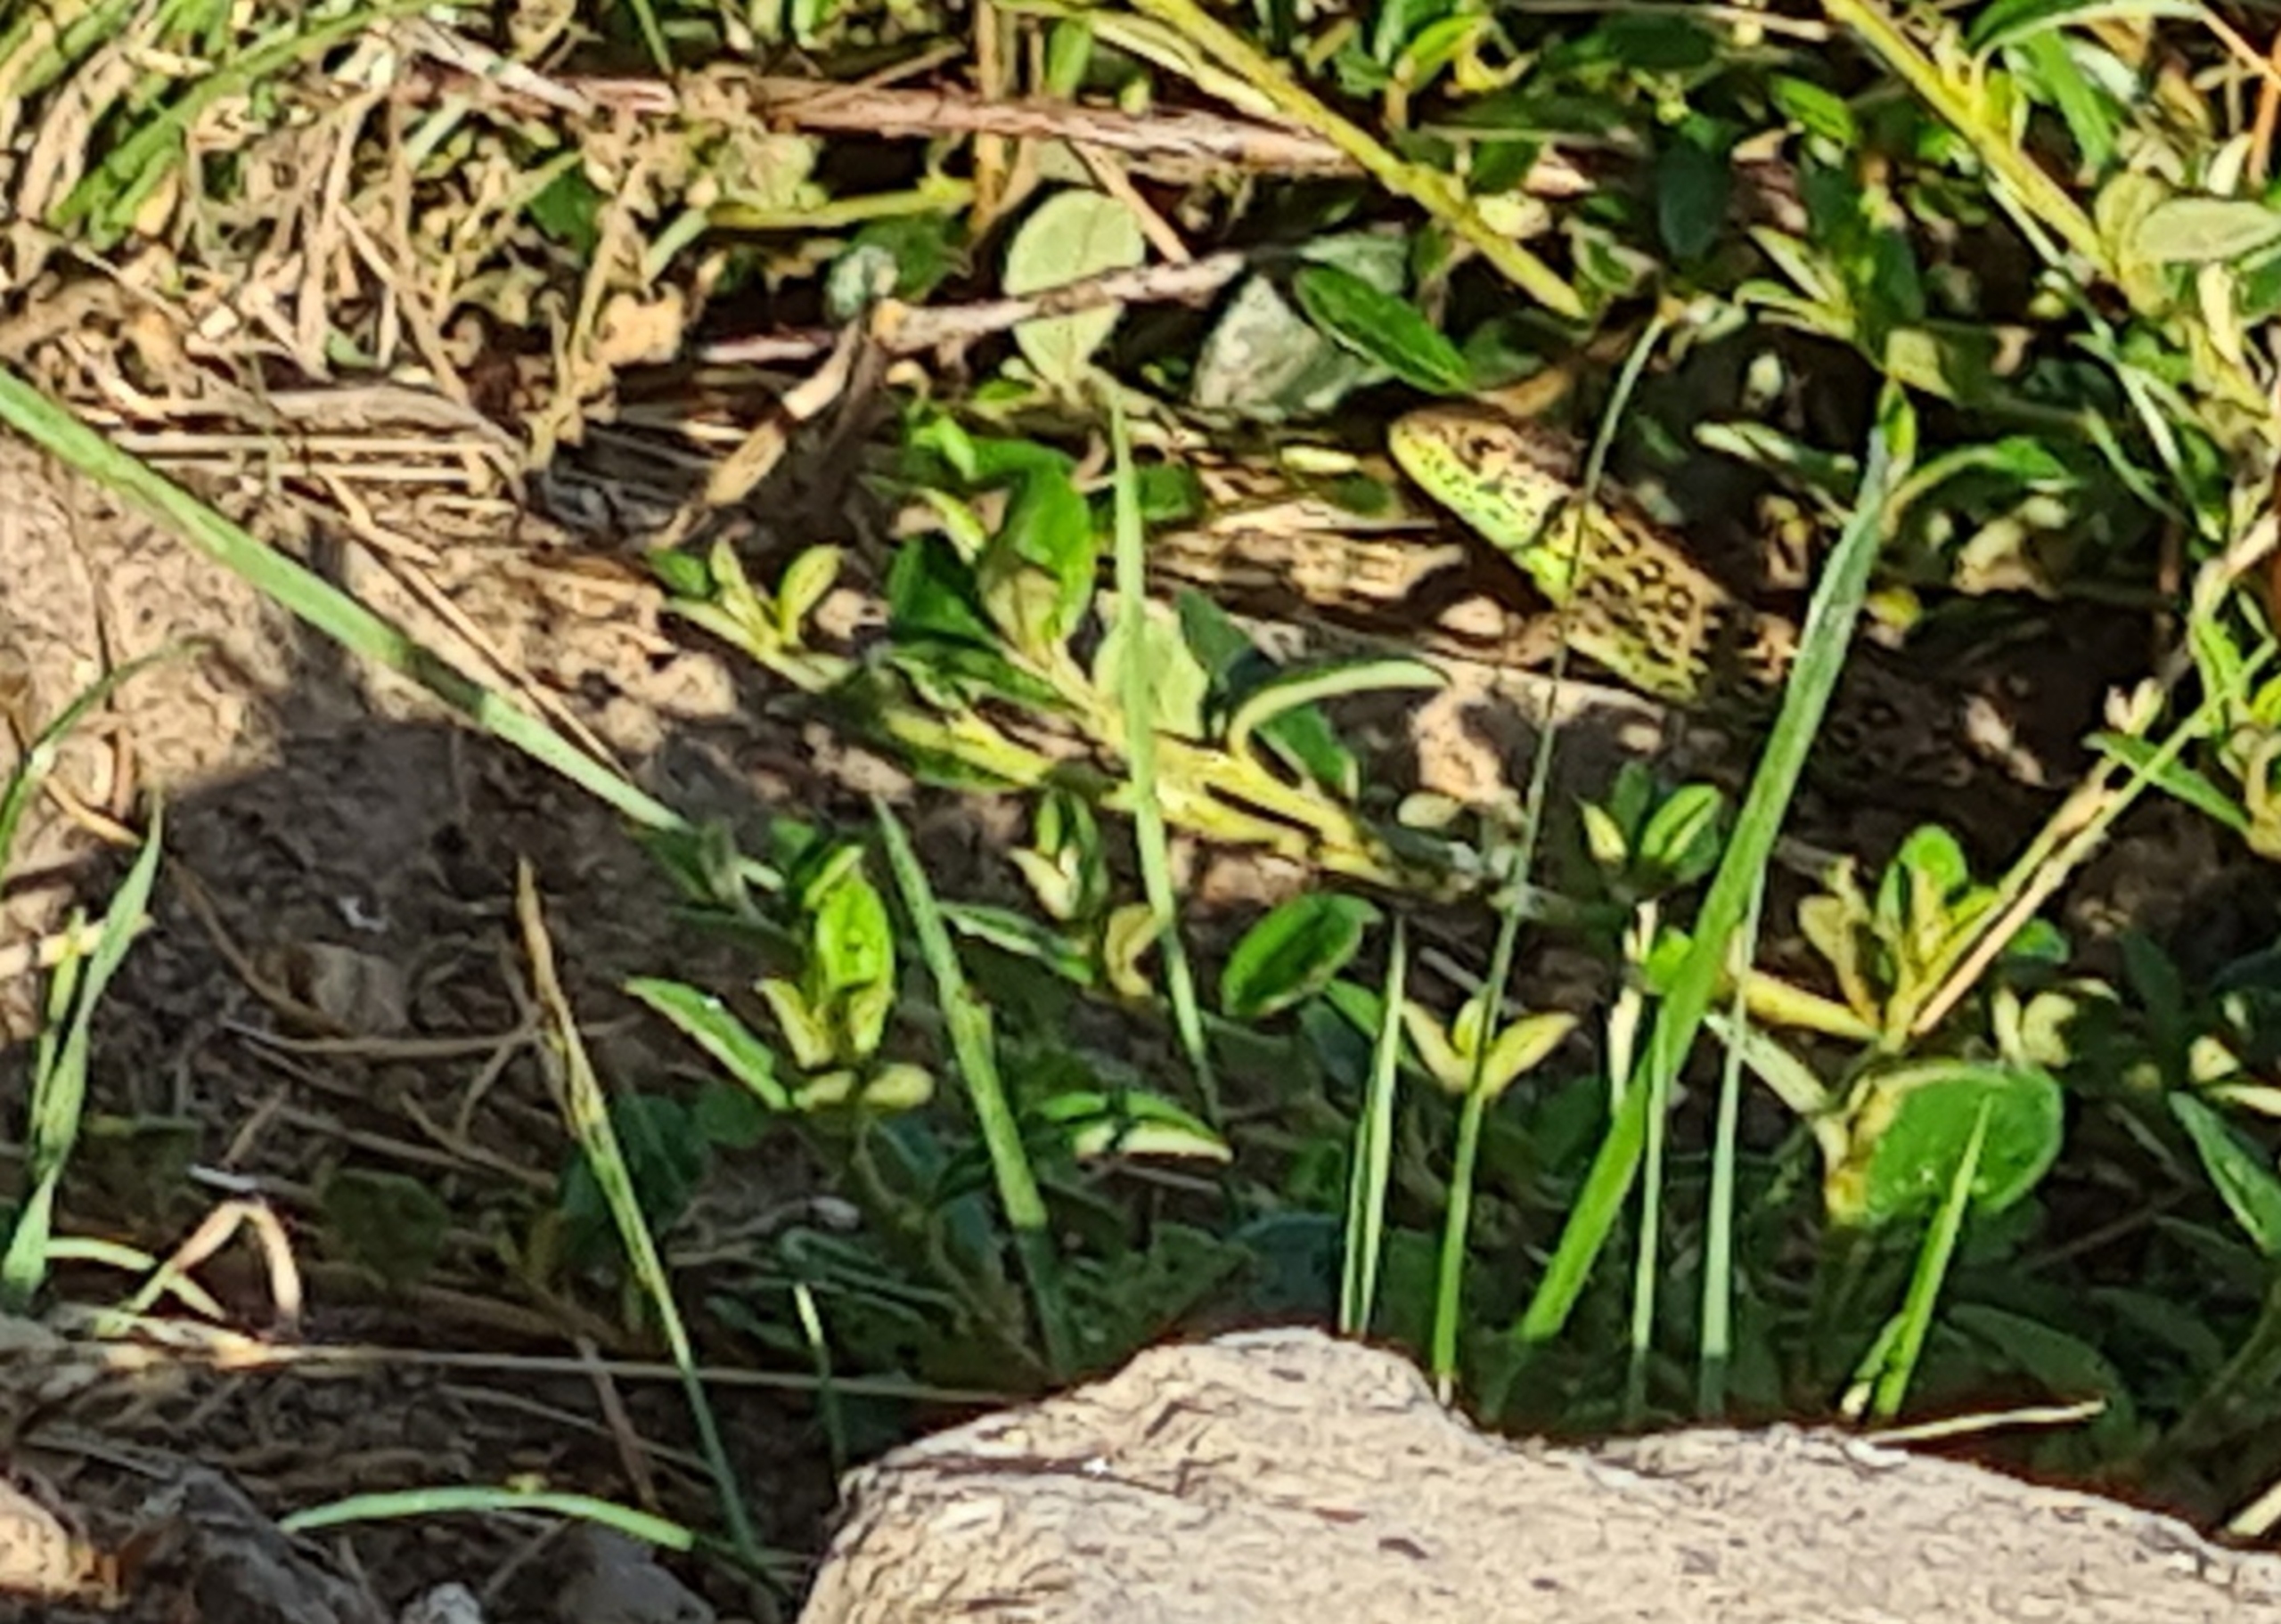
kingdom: Animalia
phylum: Chordata
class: Squamata
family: Lacertidae
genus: Lacerta
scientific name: Lacerta agilis
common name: Markfirben
